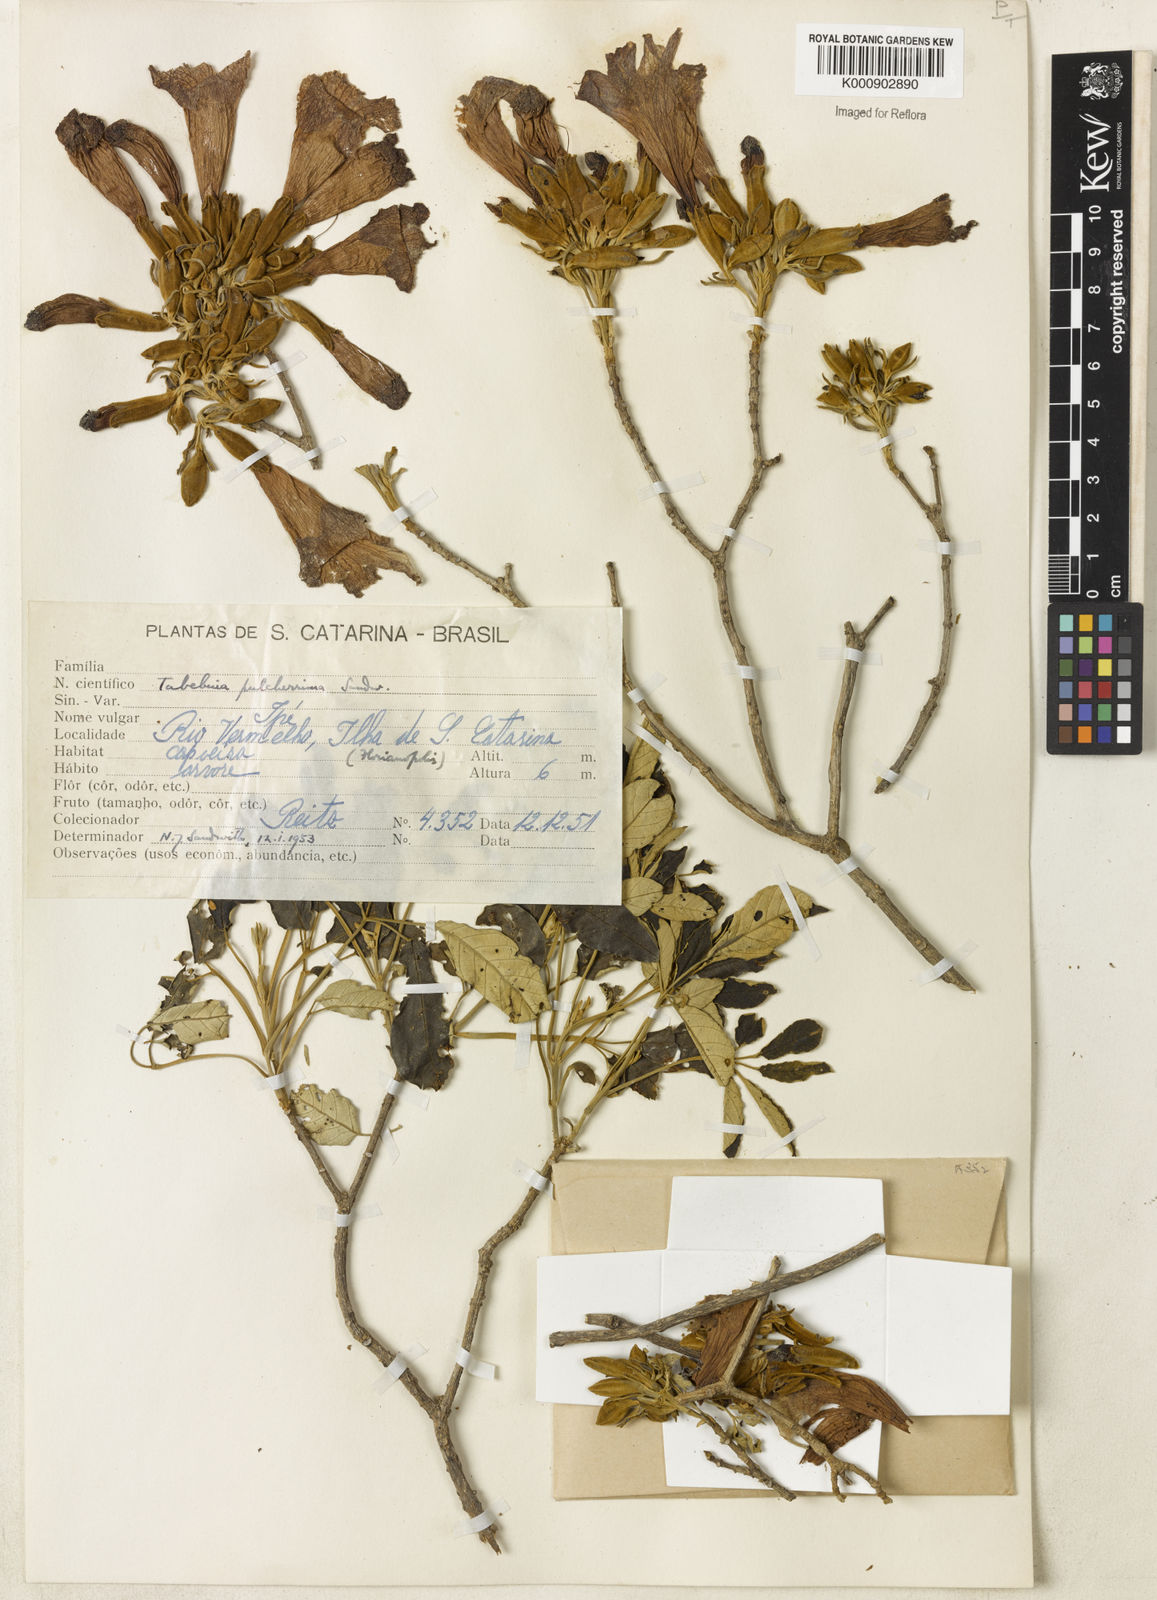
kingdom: Plantae
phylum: Tracheophyta
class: Magnoliopsida
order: Lamiales
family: Bignoniaceae
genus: Handroanthus
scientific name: Handroanthus pulcherrimus
